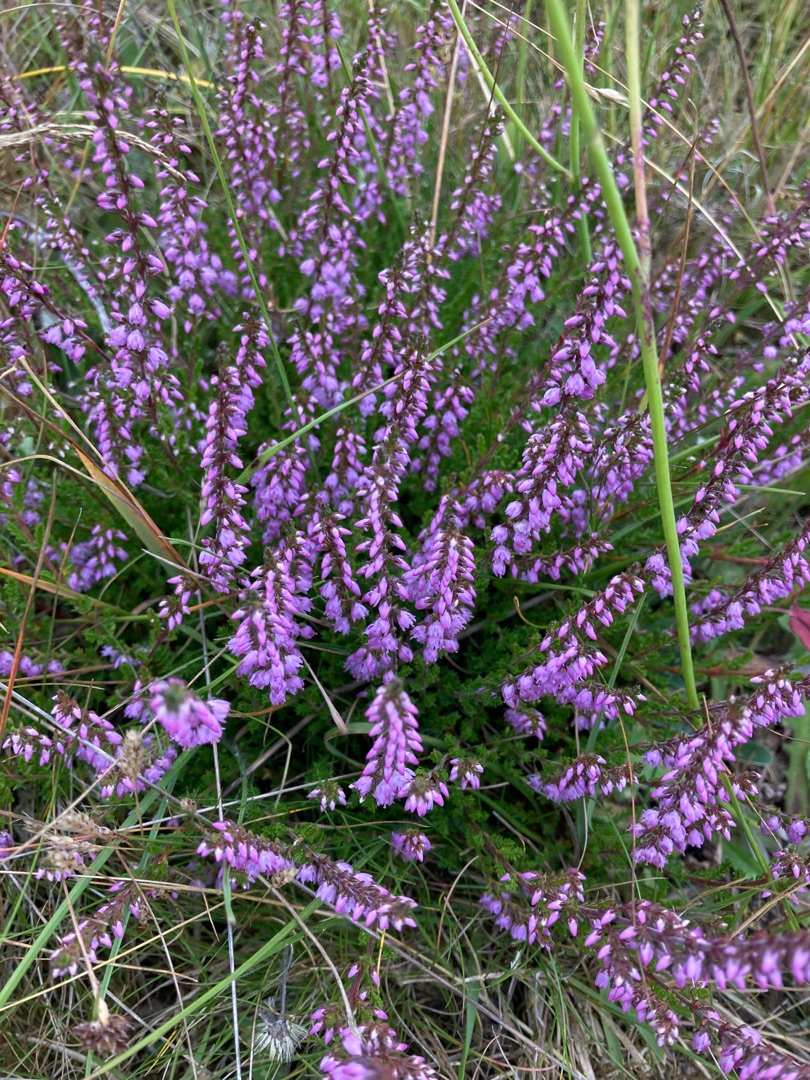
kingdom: Plantae
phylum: Tracheophyta
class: Magnoliopsida
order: Ericales
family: Ericaceae
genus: Calluna
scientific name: Calluna vulgaris
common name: Hedelyng
